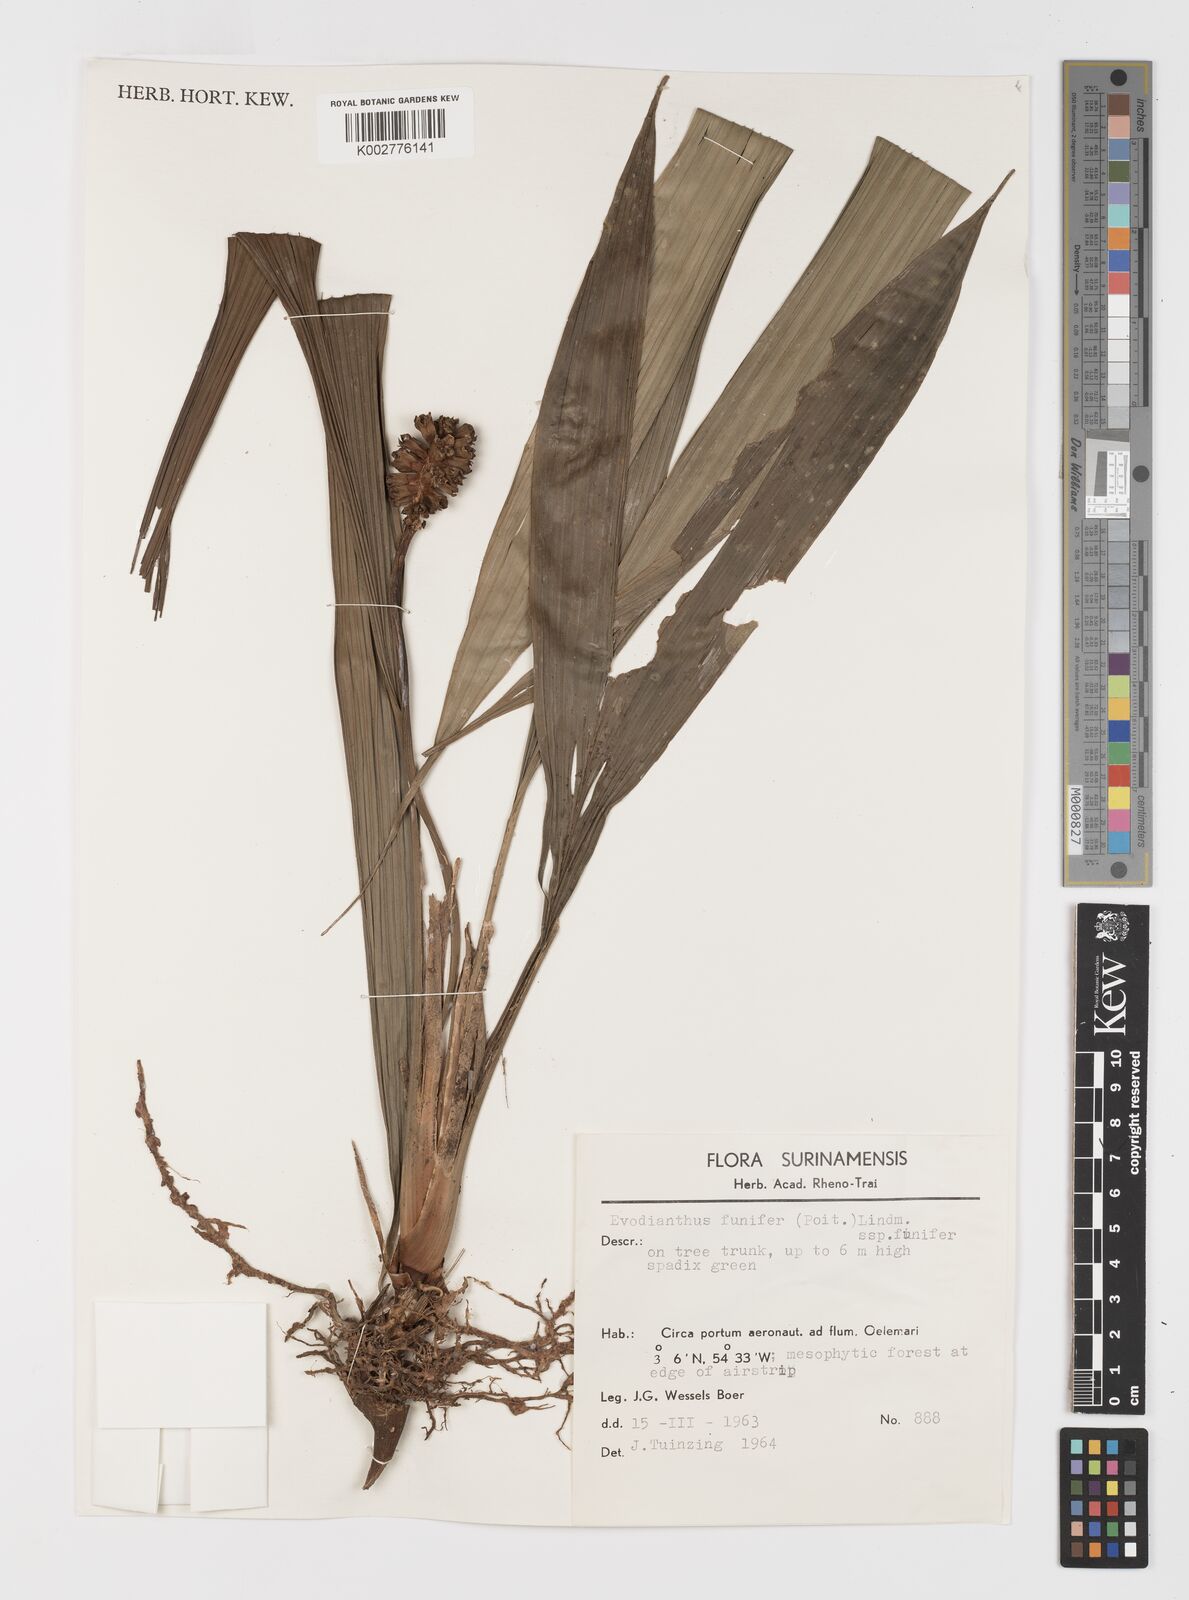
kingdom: Plantae
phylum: Tracheophyta
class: Liliopsida
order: Pandanales
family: Cyclanthaceae
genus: Evodianthus
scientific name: Evodianthus funifer
